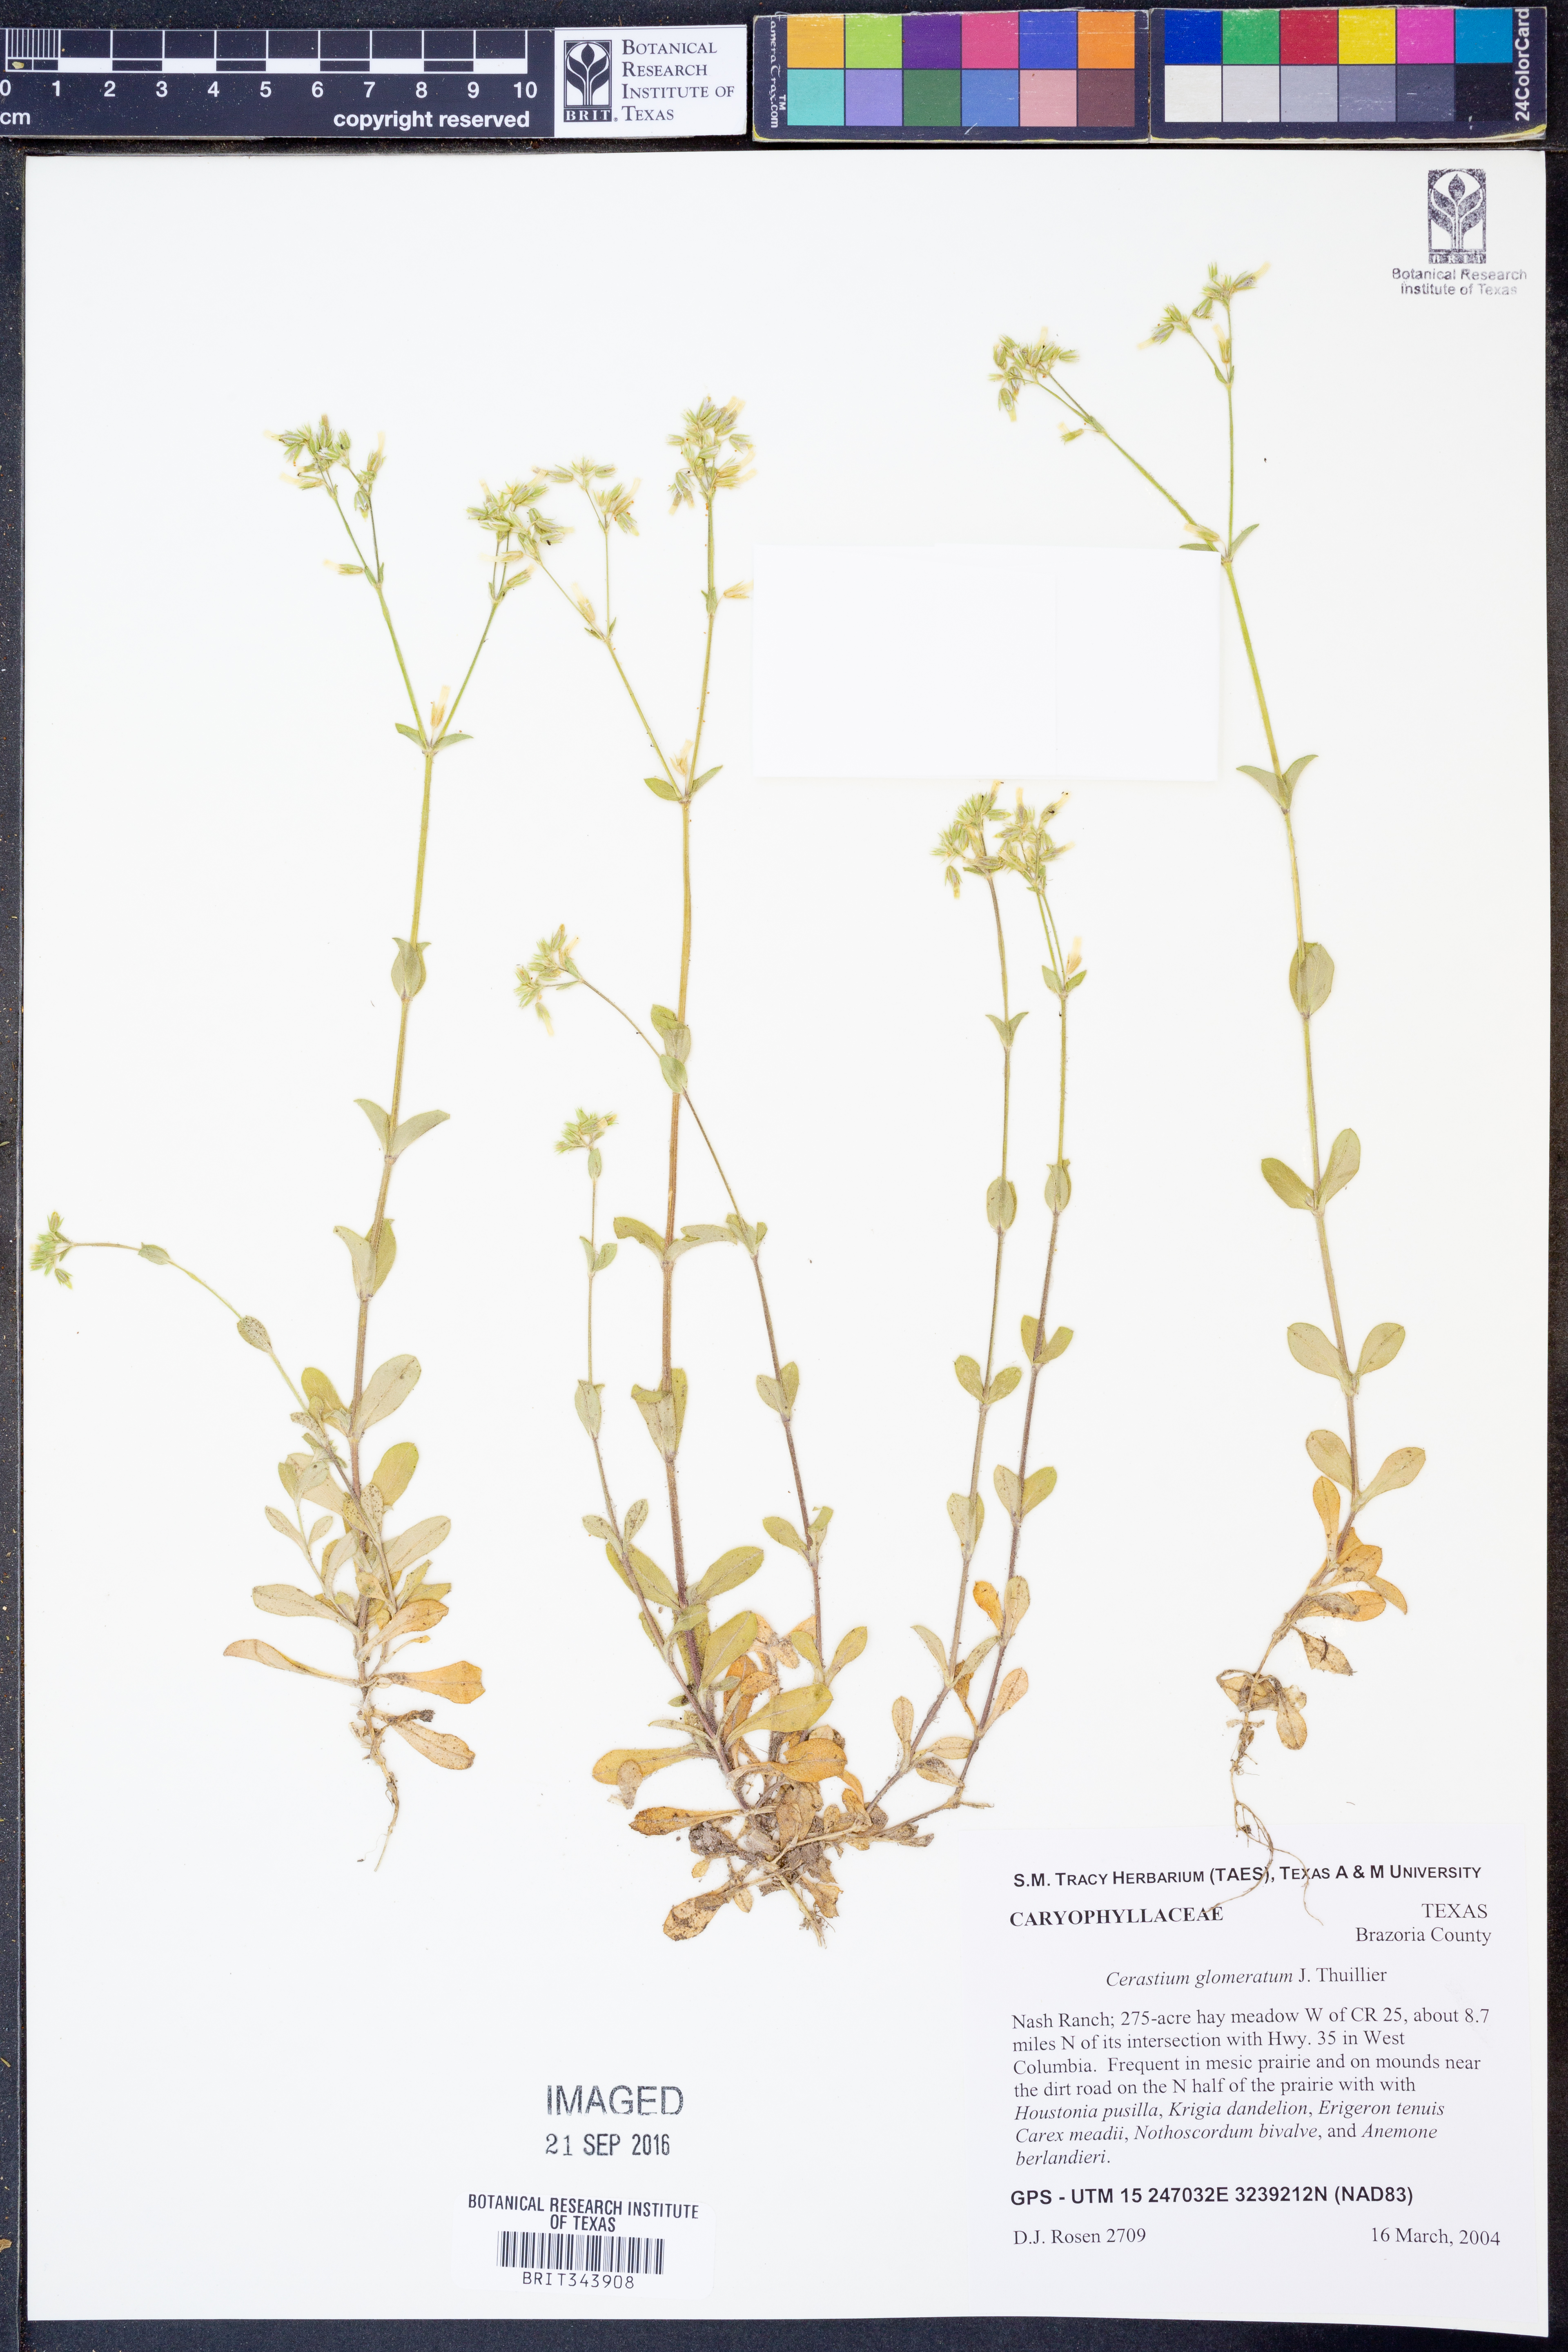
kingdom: Plantae
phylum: Tracheophyta
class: Magnoliopsida
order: Caryophyllales
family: Caryophyllaceae
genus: Cerastium
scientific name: Cerastium glomeratum
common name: Sticky chickweed
